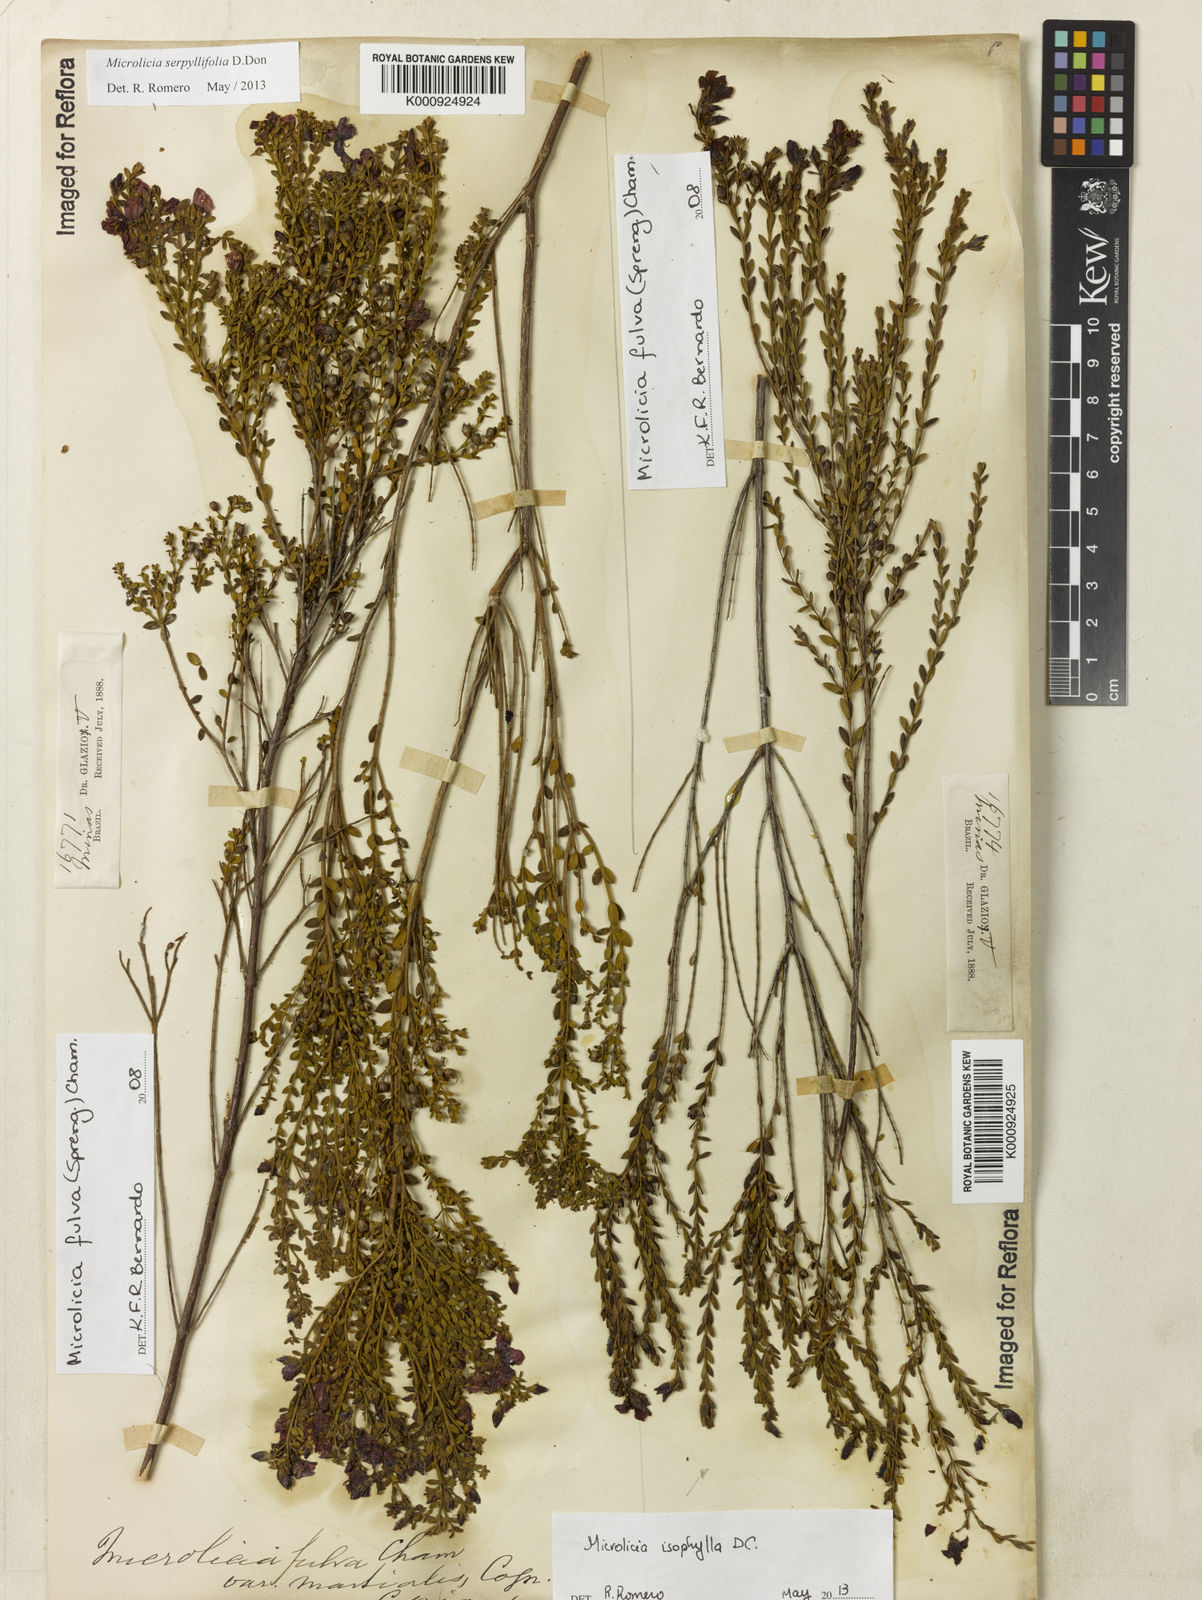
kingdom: Plantae
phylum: Tracheophyta
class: Magnoliopsida
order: Myrtales
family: Melastomataceae
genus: Microlicia
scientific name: Microlicia fulva
